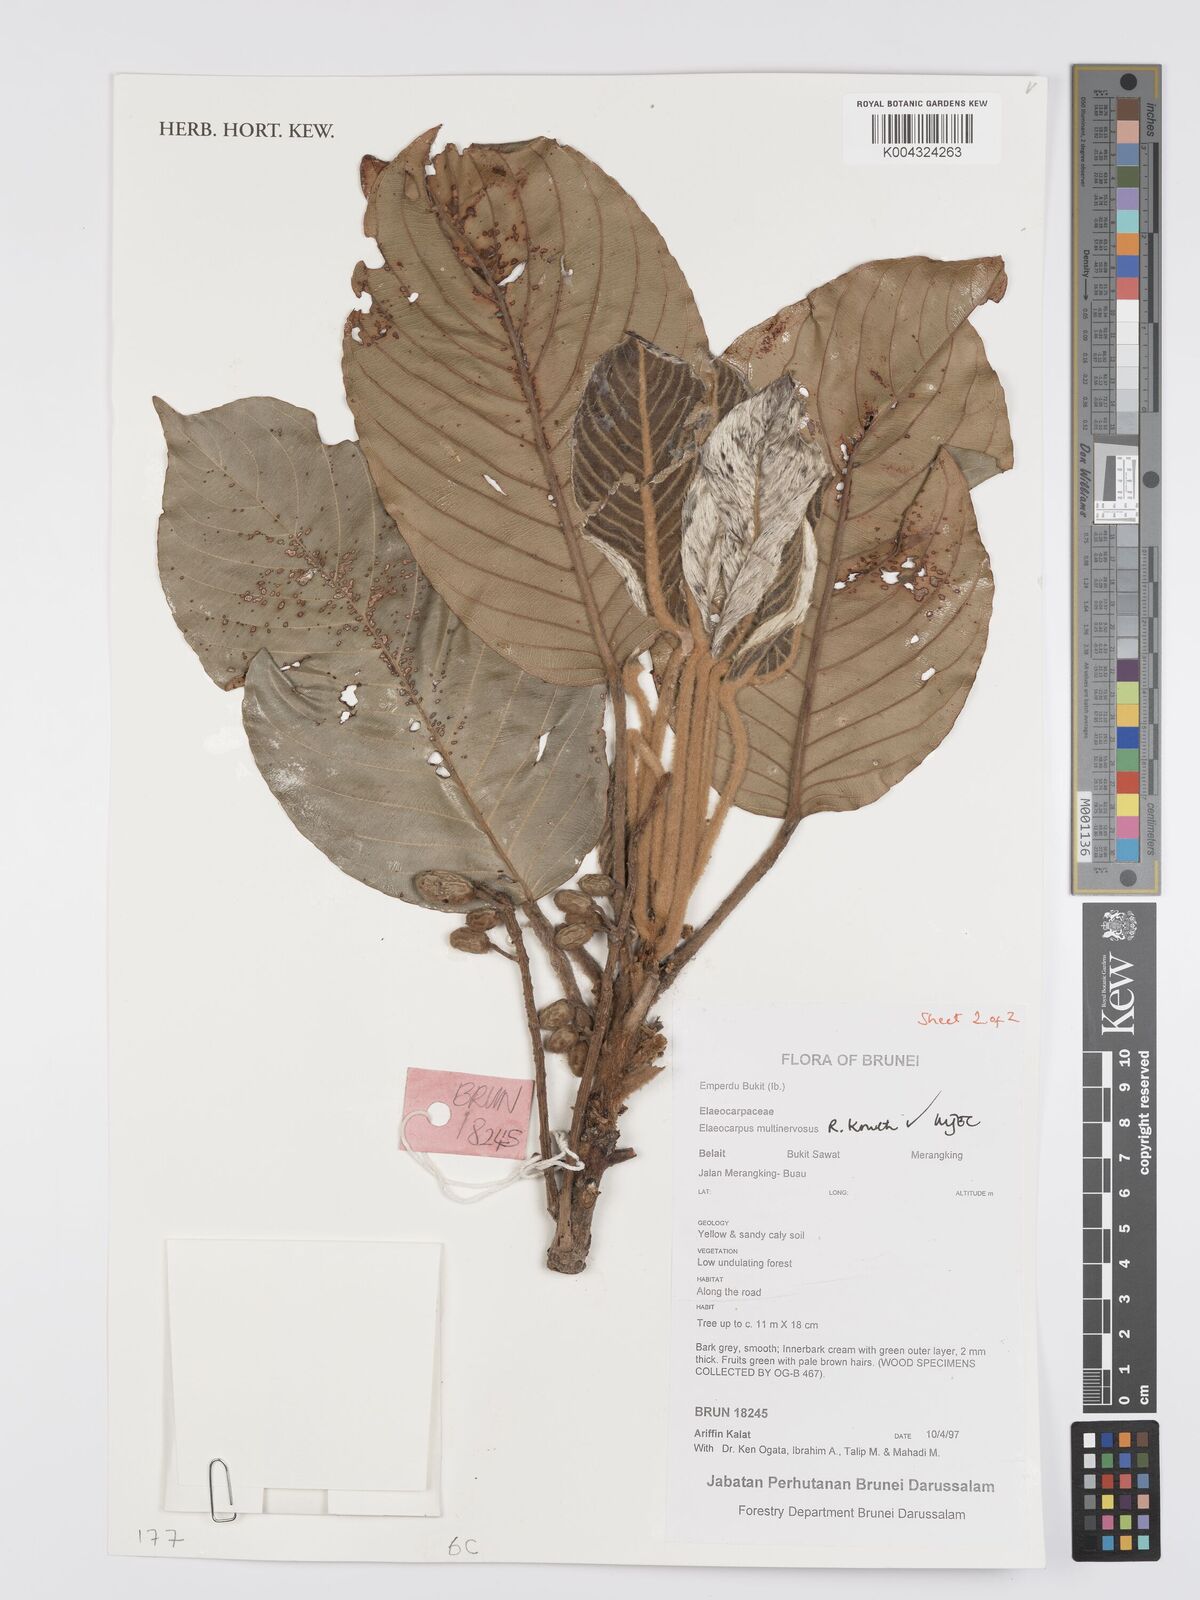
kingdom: Plantae
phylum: Tracheophyta
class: Magnoliopsida
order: Oxalidales
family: Elaeocarpaceae
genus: Elaeocarpus
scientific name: Elaeocarpus multinervosus
